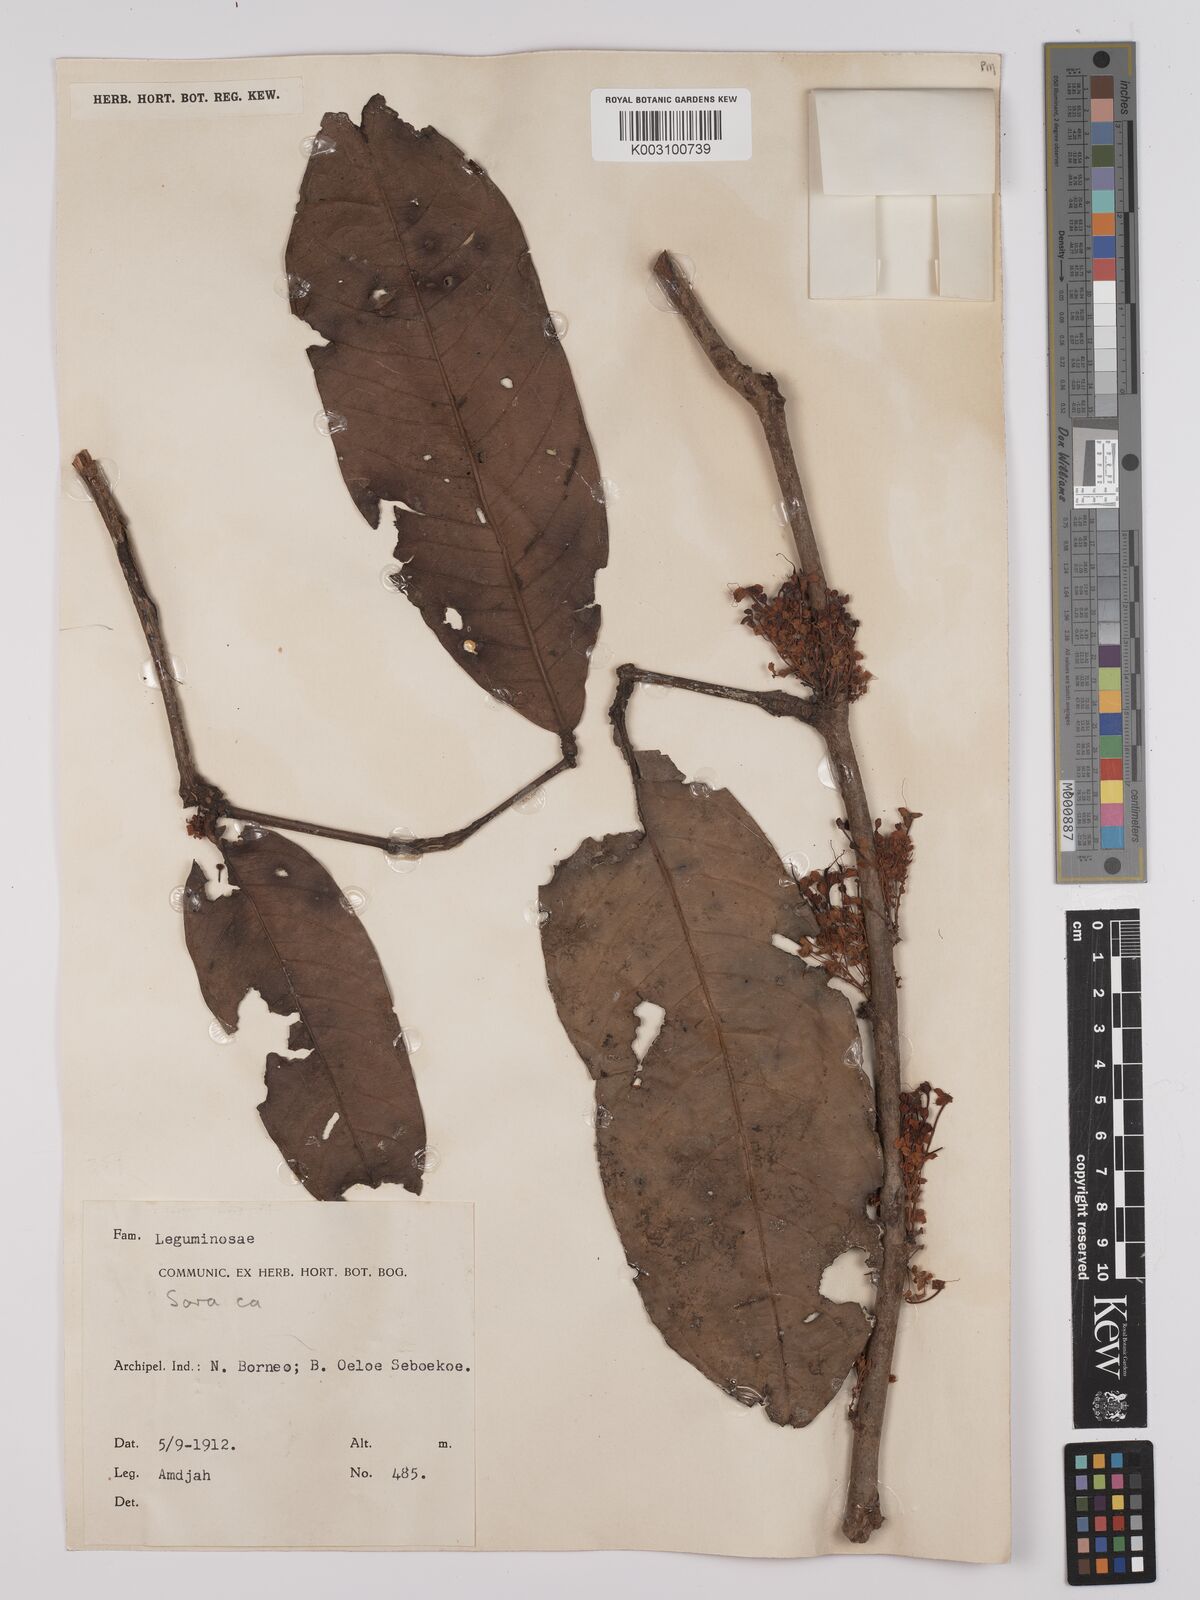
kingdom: Plantae
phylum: Tracheophyta
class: Magnoliopsida
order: Fabales
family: Fabaceae
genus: Saraca
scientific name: Saraca declinata
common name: Red saraca
